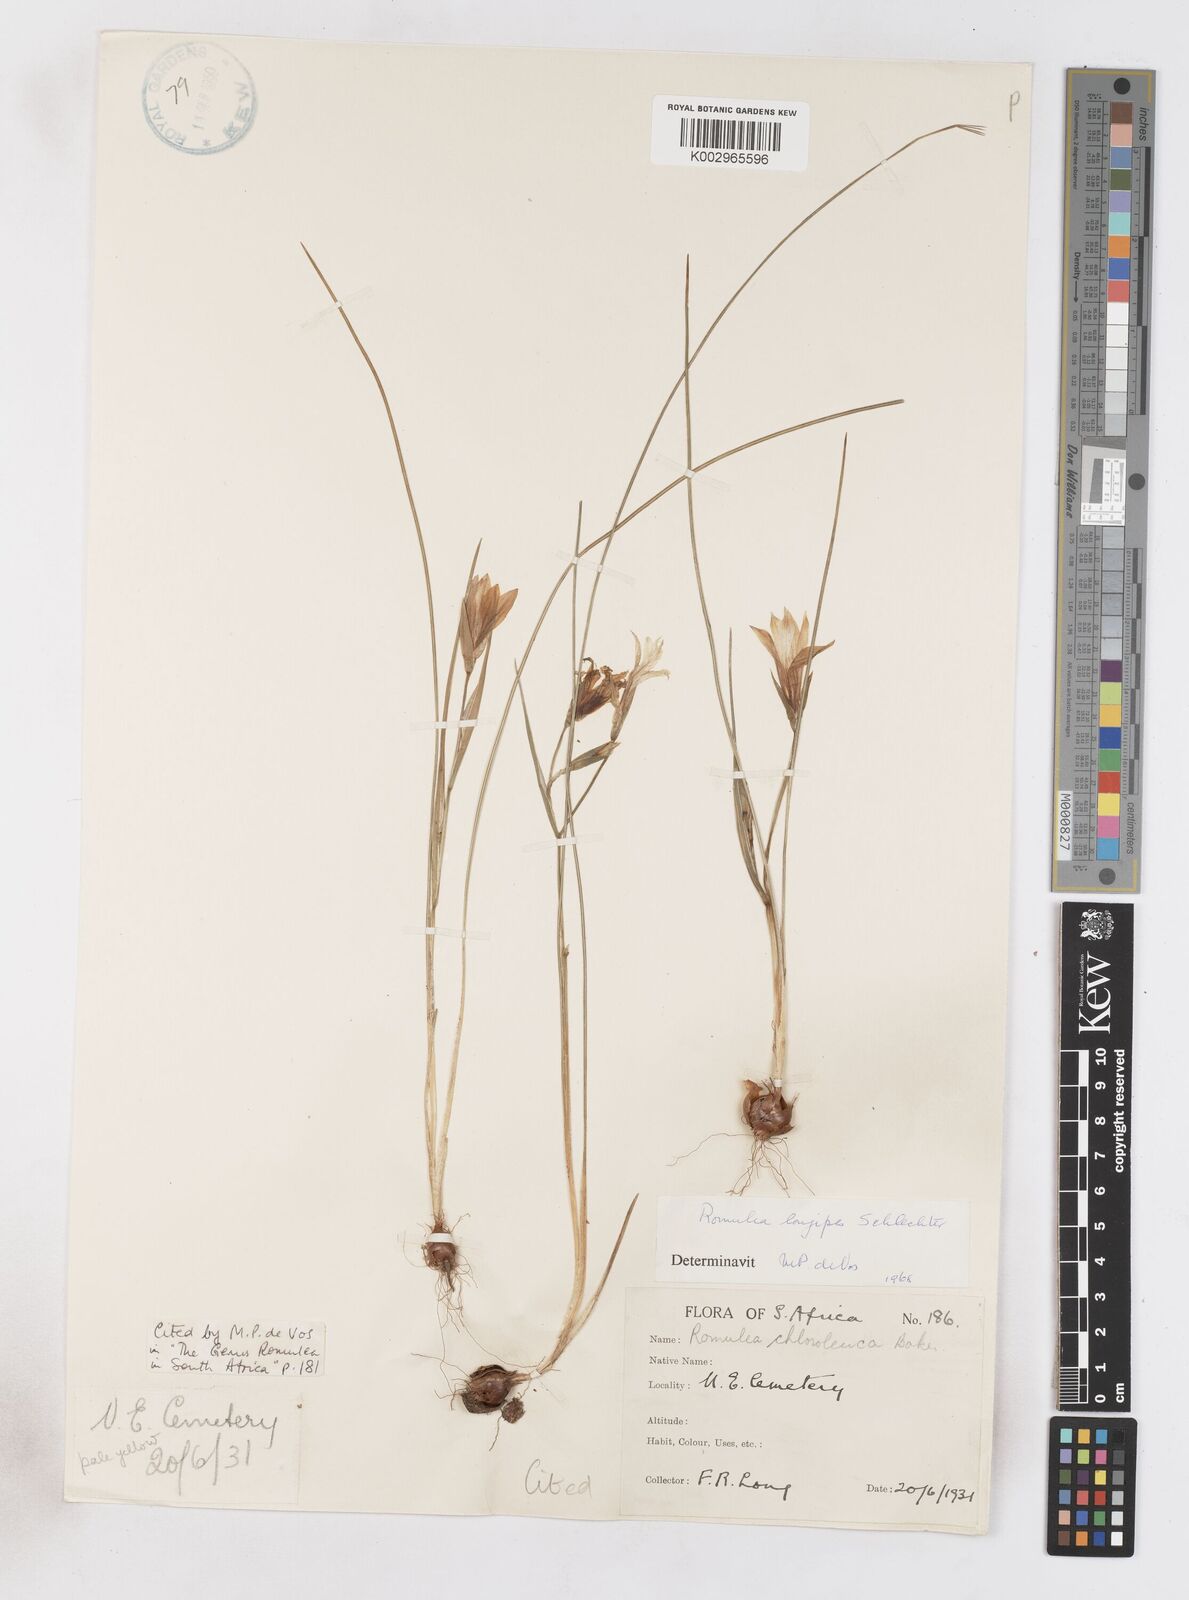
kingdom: Plantae
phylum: Tracheophyta
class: Liliopsida
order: Asparagales
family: Iridaceae
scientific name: Iridaceae
